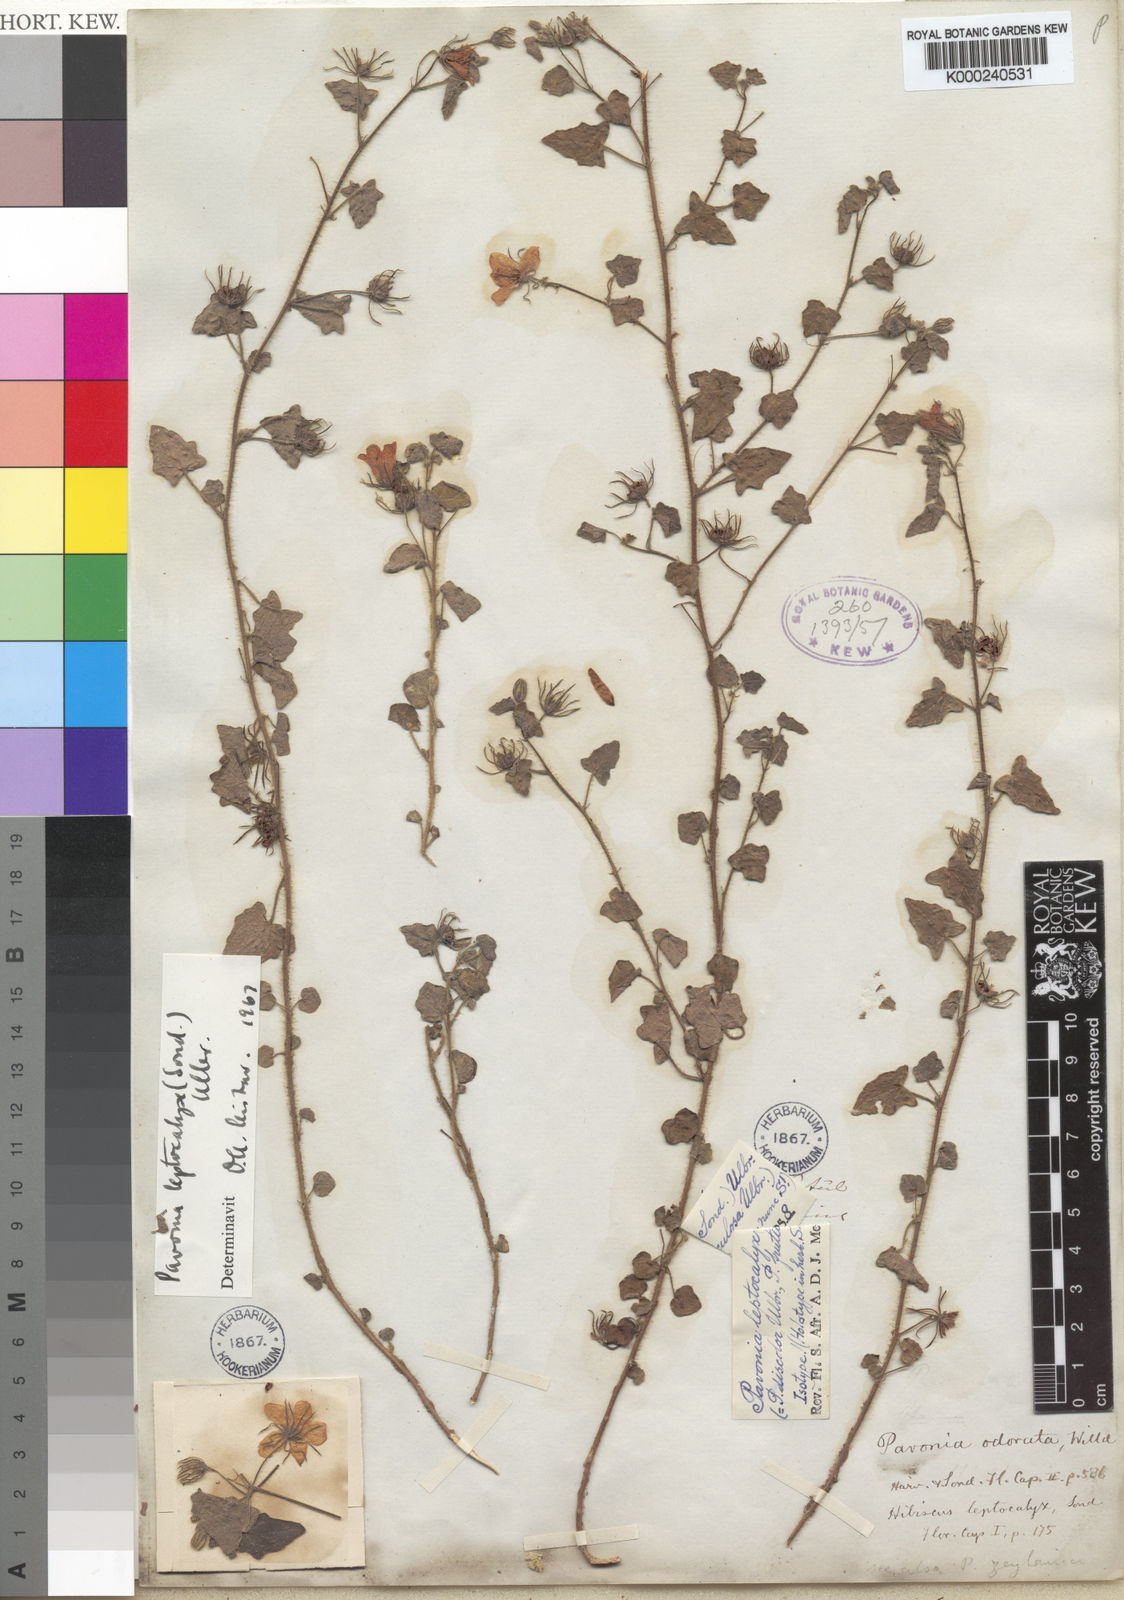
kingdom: Plantae
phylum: Tracheophyta
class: Magnoliopsida
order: Malvales
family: Malvaceae
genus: Pavonia
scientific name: Pavonia leptocalyx
